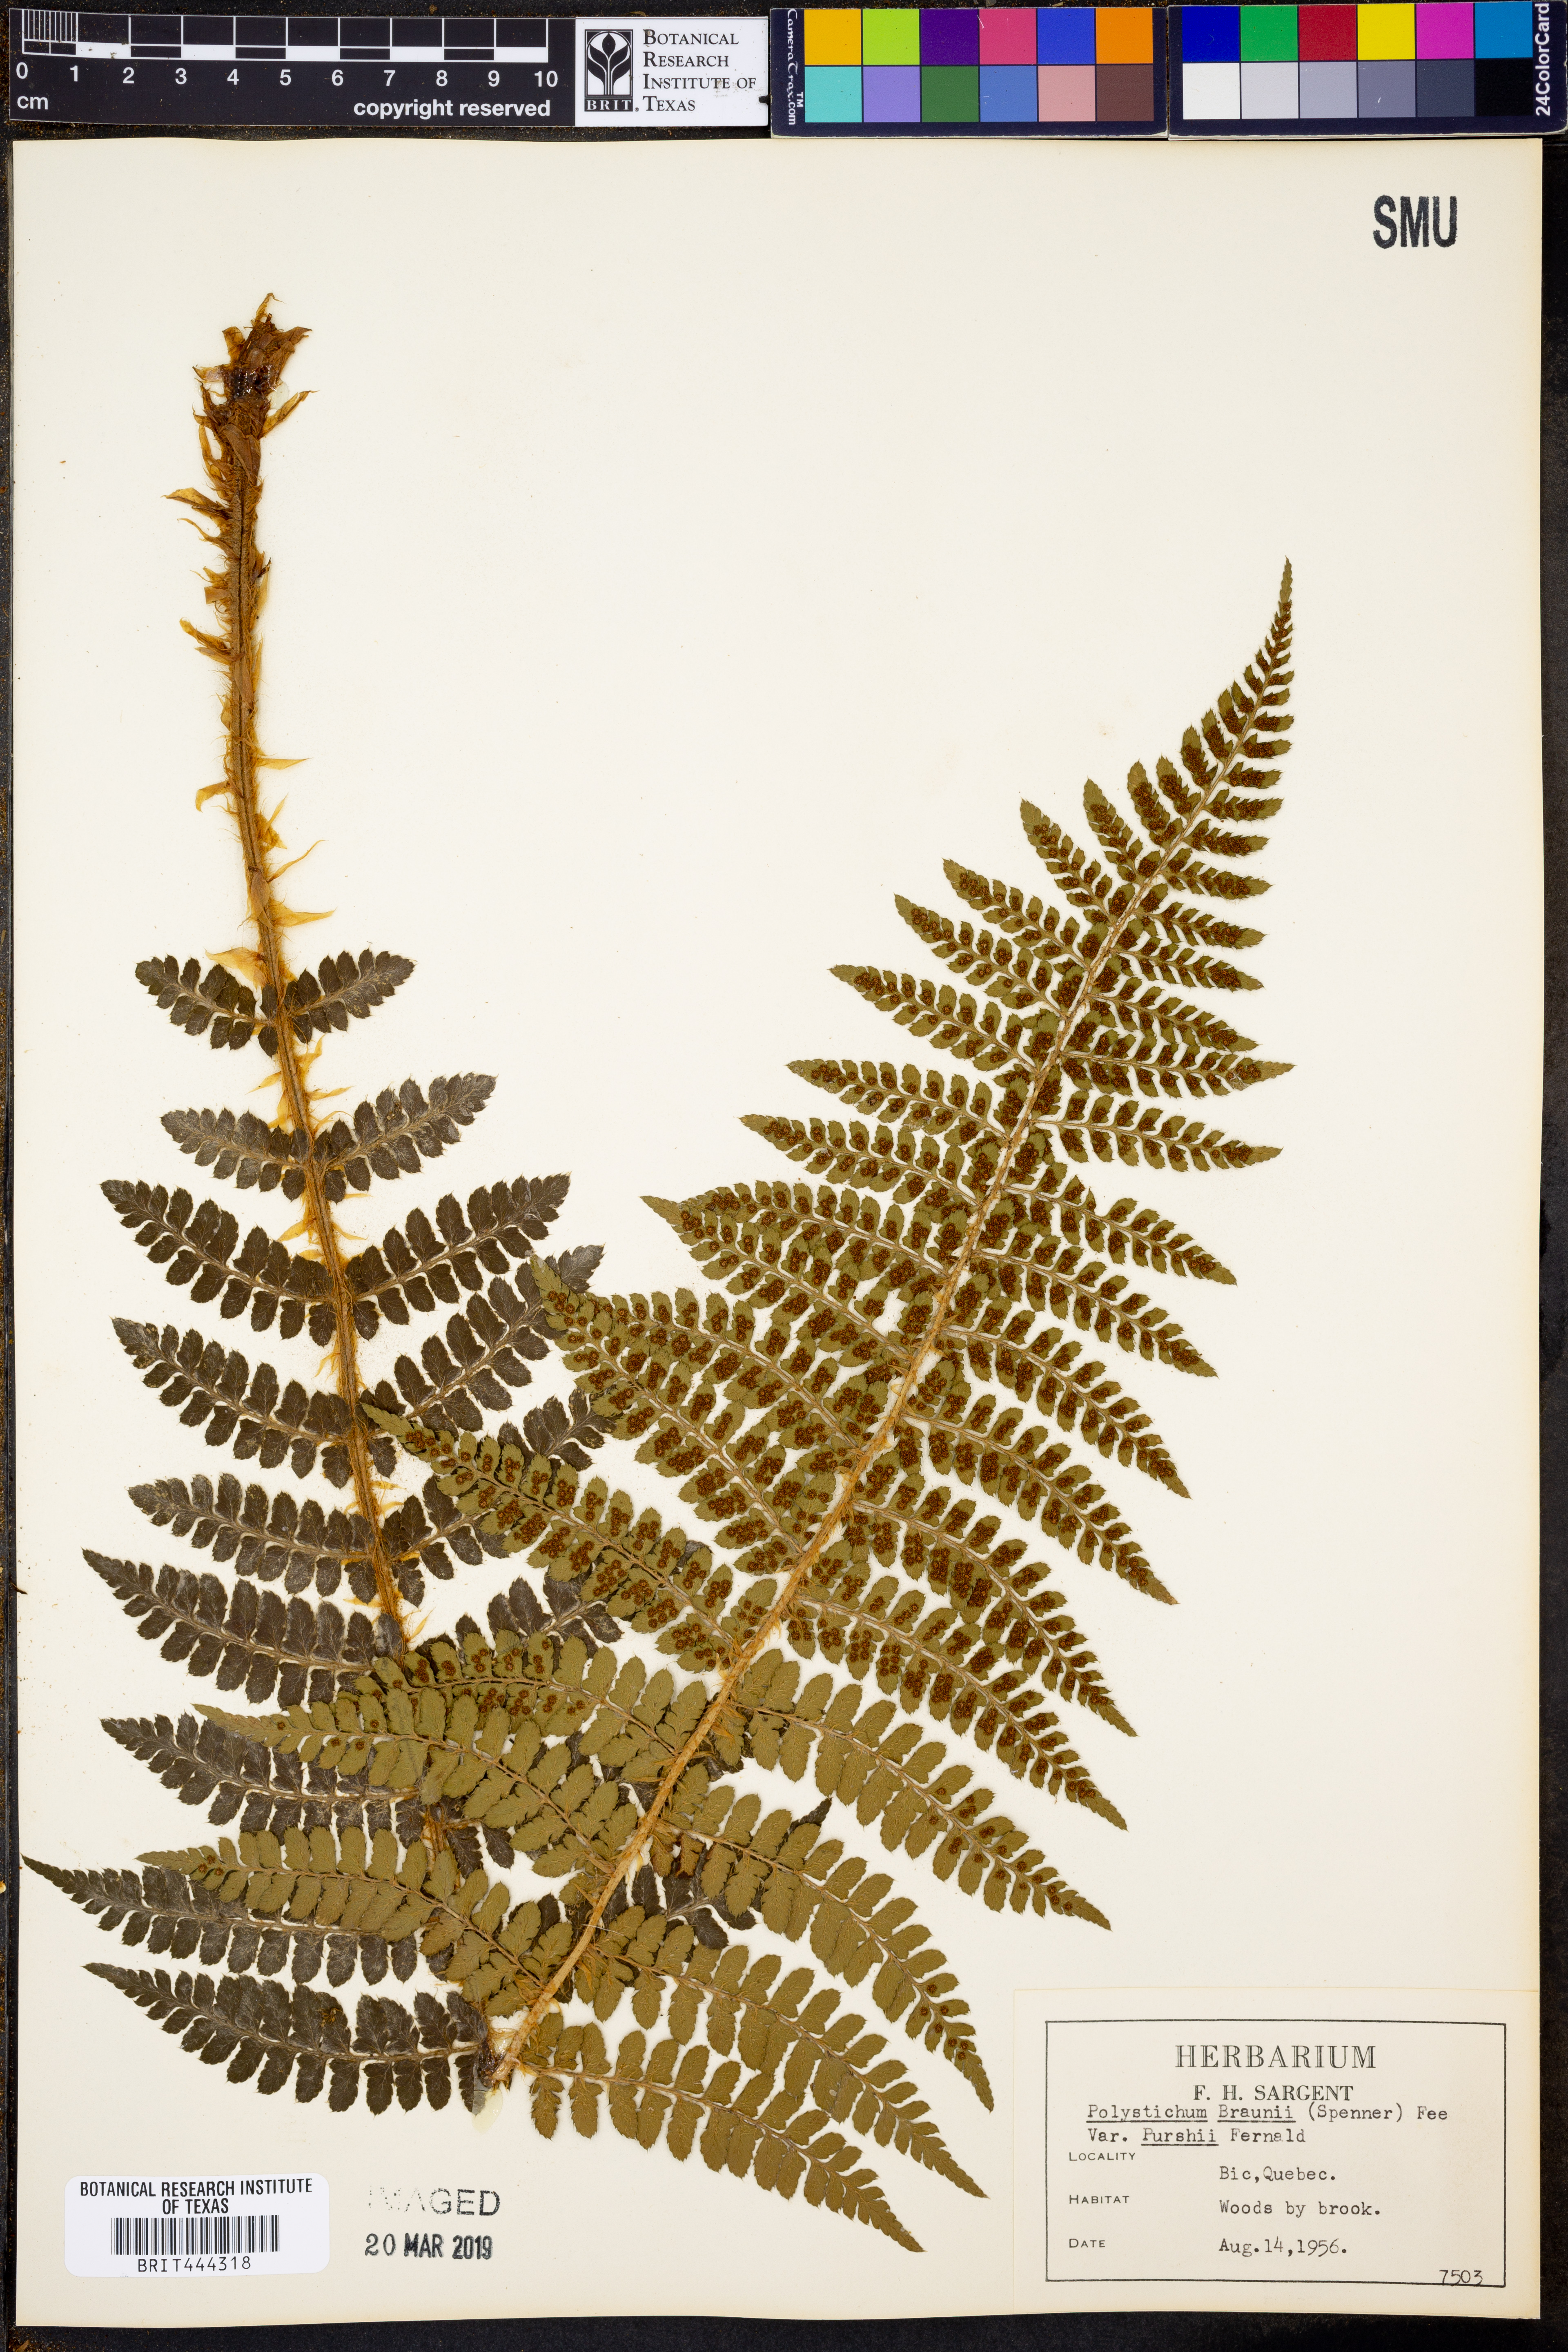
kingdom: Plantae
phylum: Tracheophyta
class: Polypodiopsida
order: Polypodiales
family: Dryopteridaceae
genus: Polystichum
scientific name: Polystichum braunii
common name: Braun's holly fern
